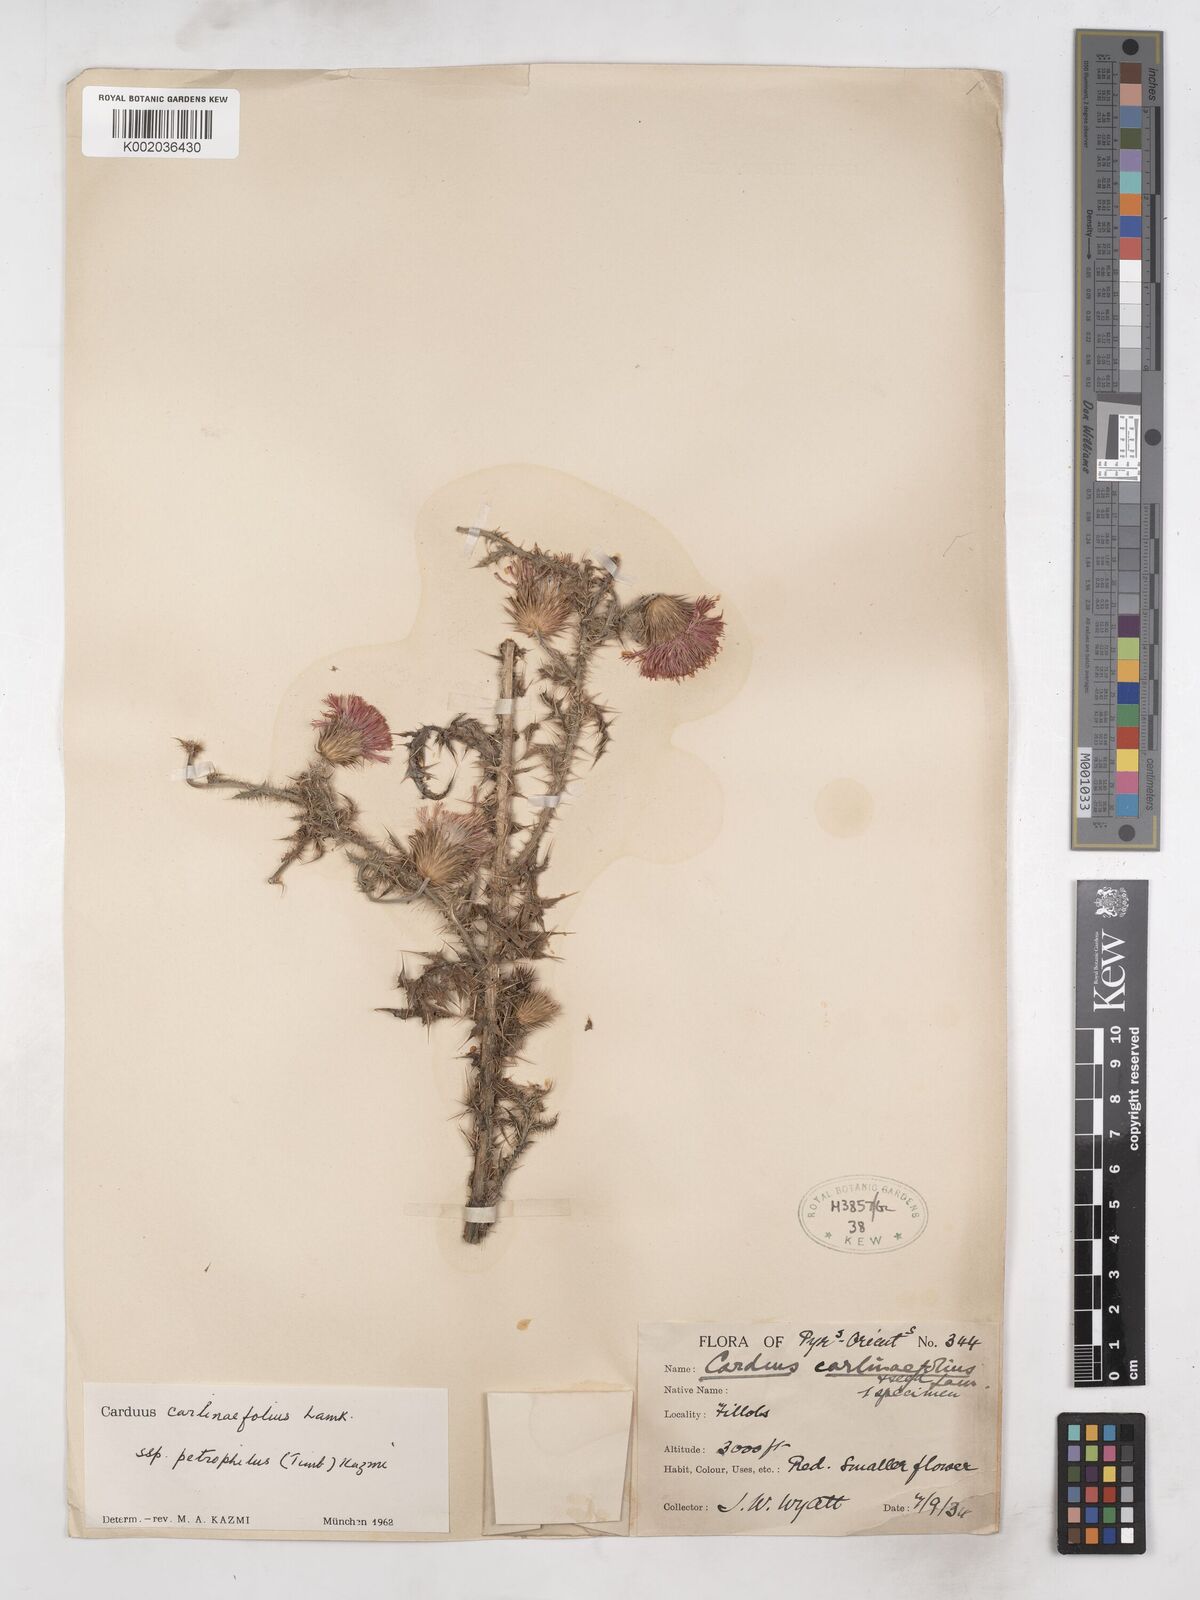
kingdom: Plantae
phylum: Tracheophyta
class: Magnoliopsida
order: Asterales
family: Asteraceae
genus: Carduus
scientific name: Carduus carlinifolius
